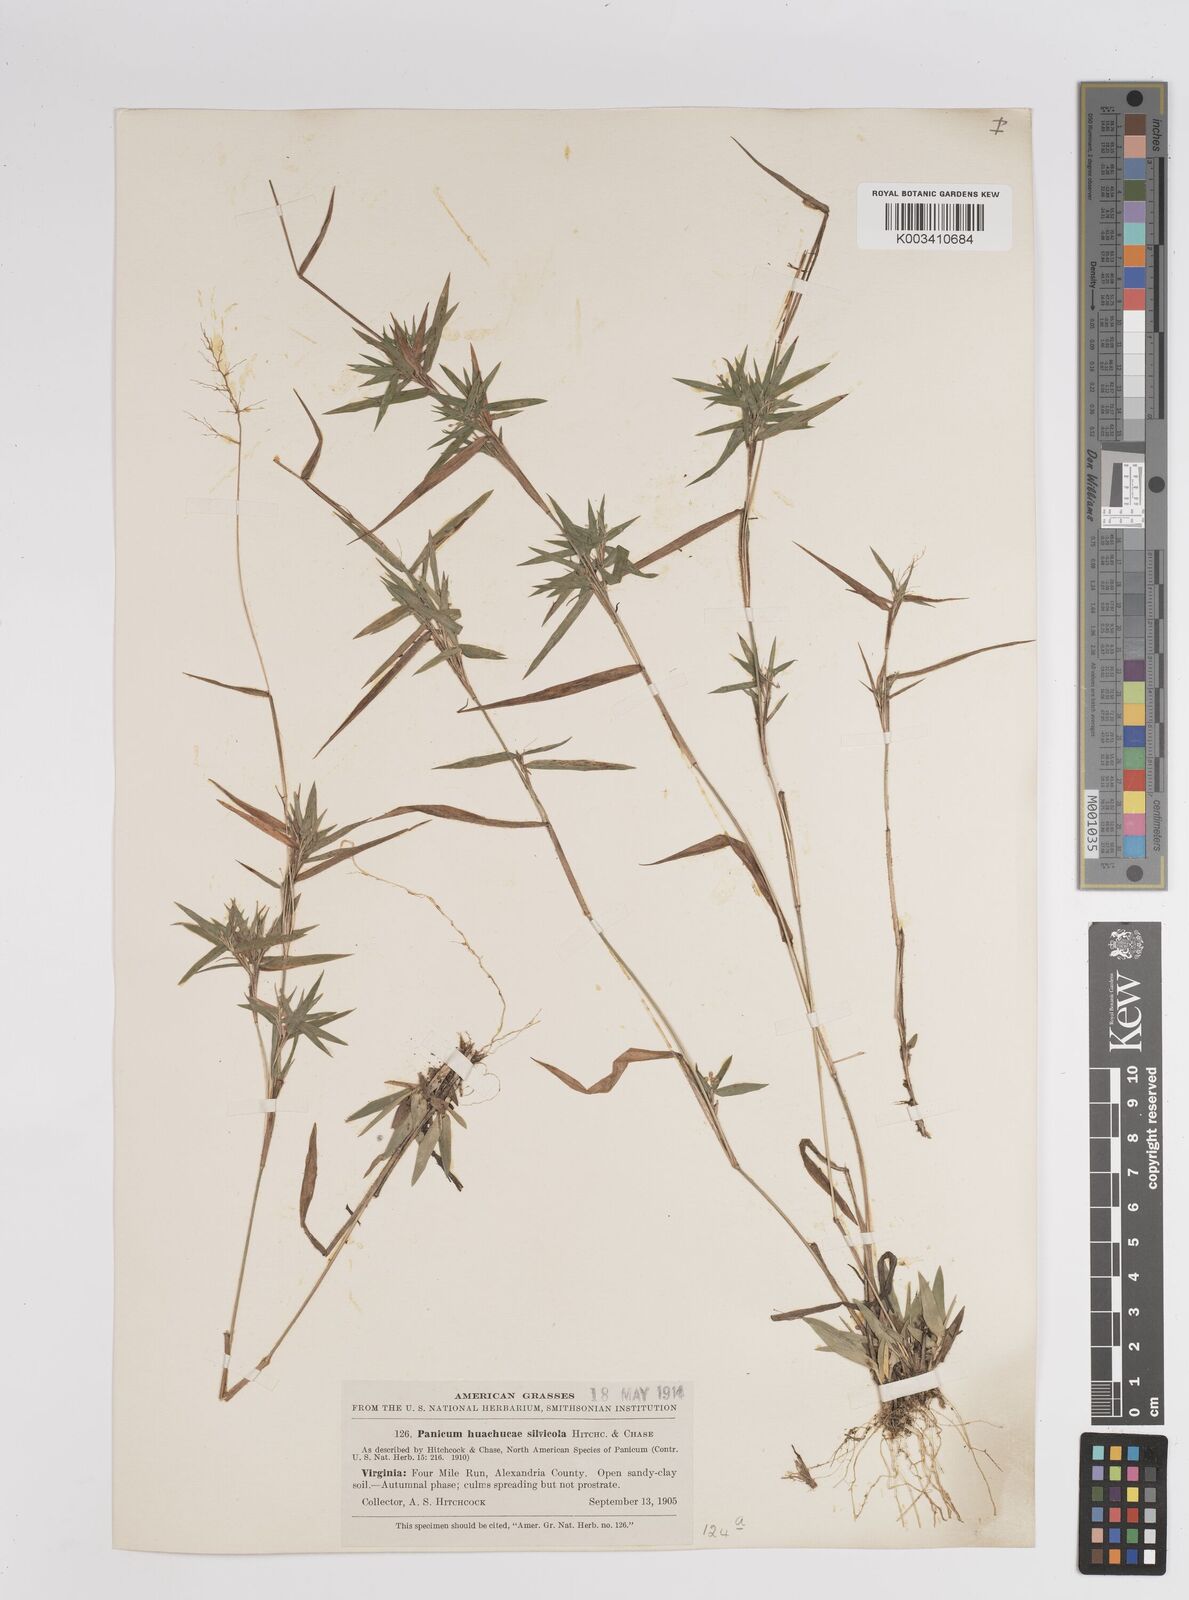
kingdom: Plantae
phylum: Tracheophyta
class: Liliopsida
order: Poales
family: Poaceae
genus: Dichanthelium
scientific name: Dichanthelium lanuginosum
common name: Woolly panicgrass
